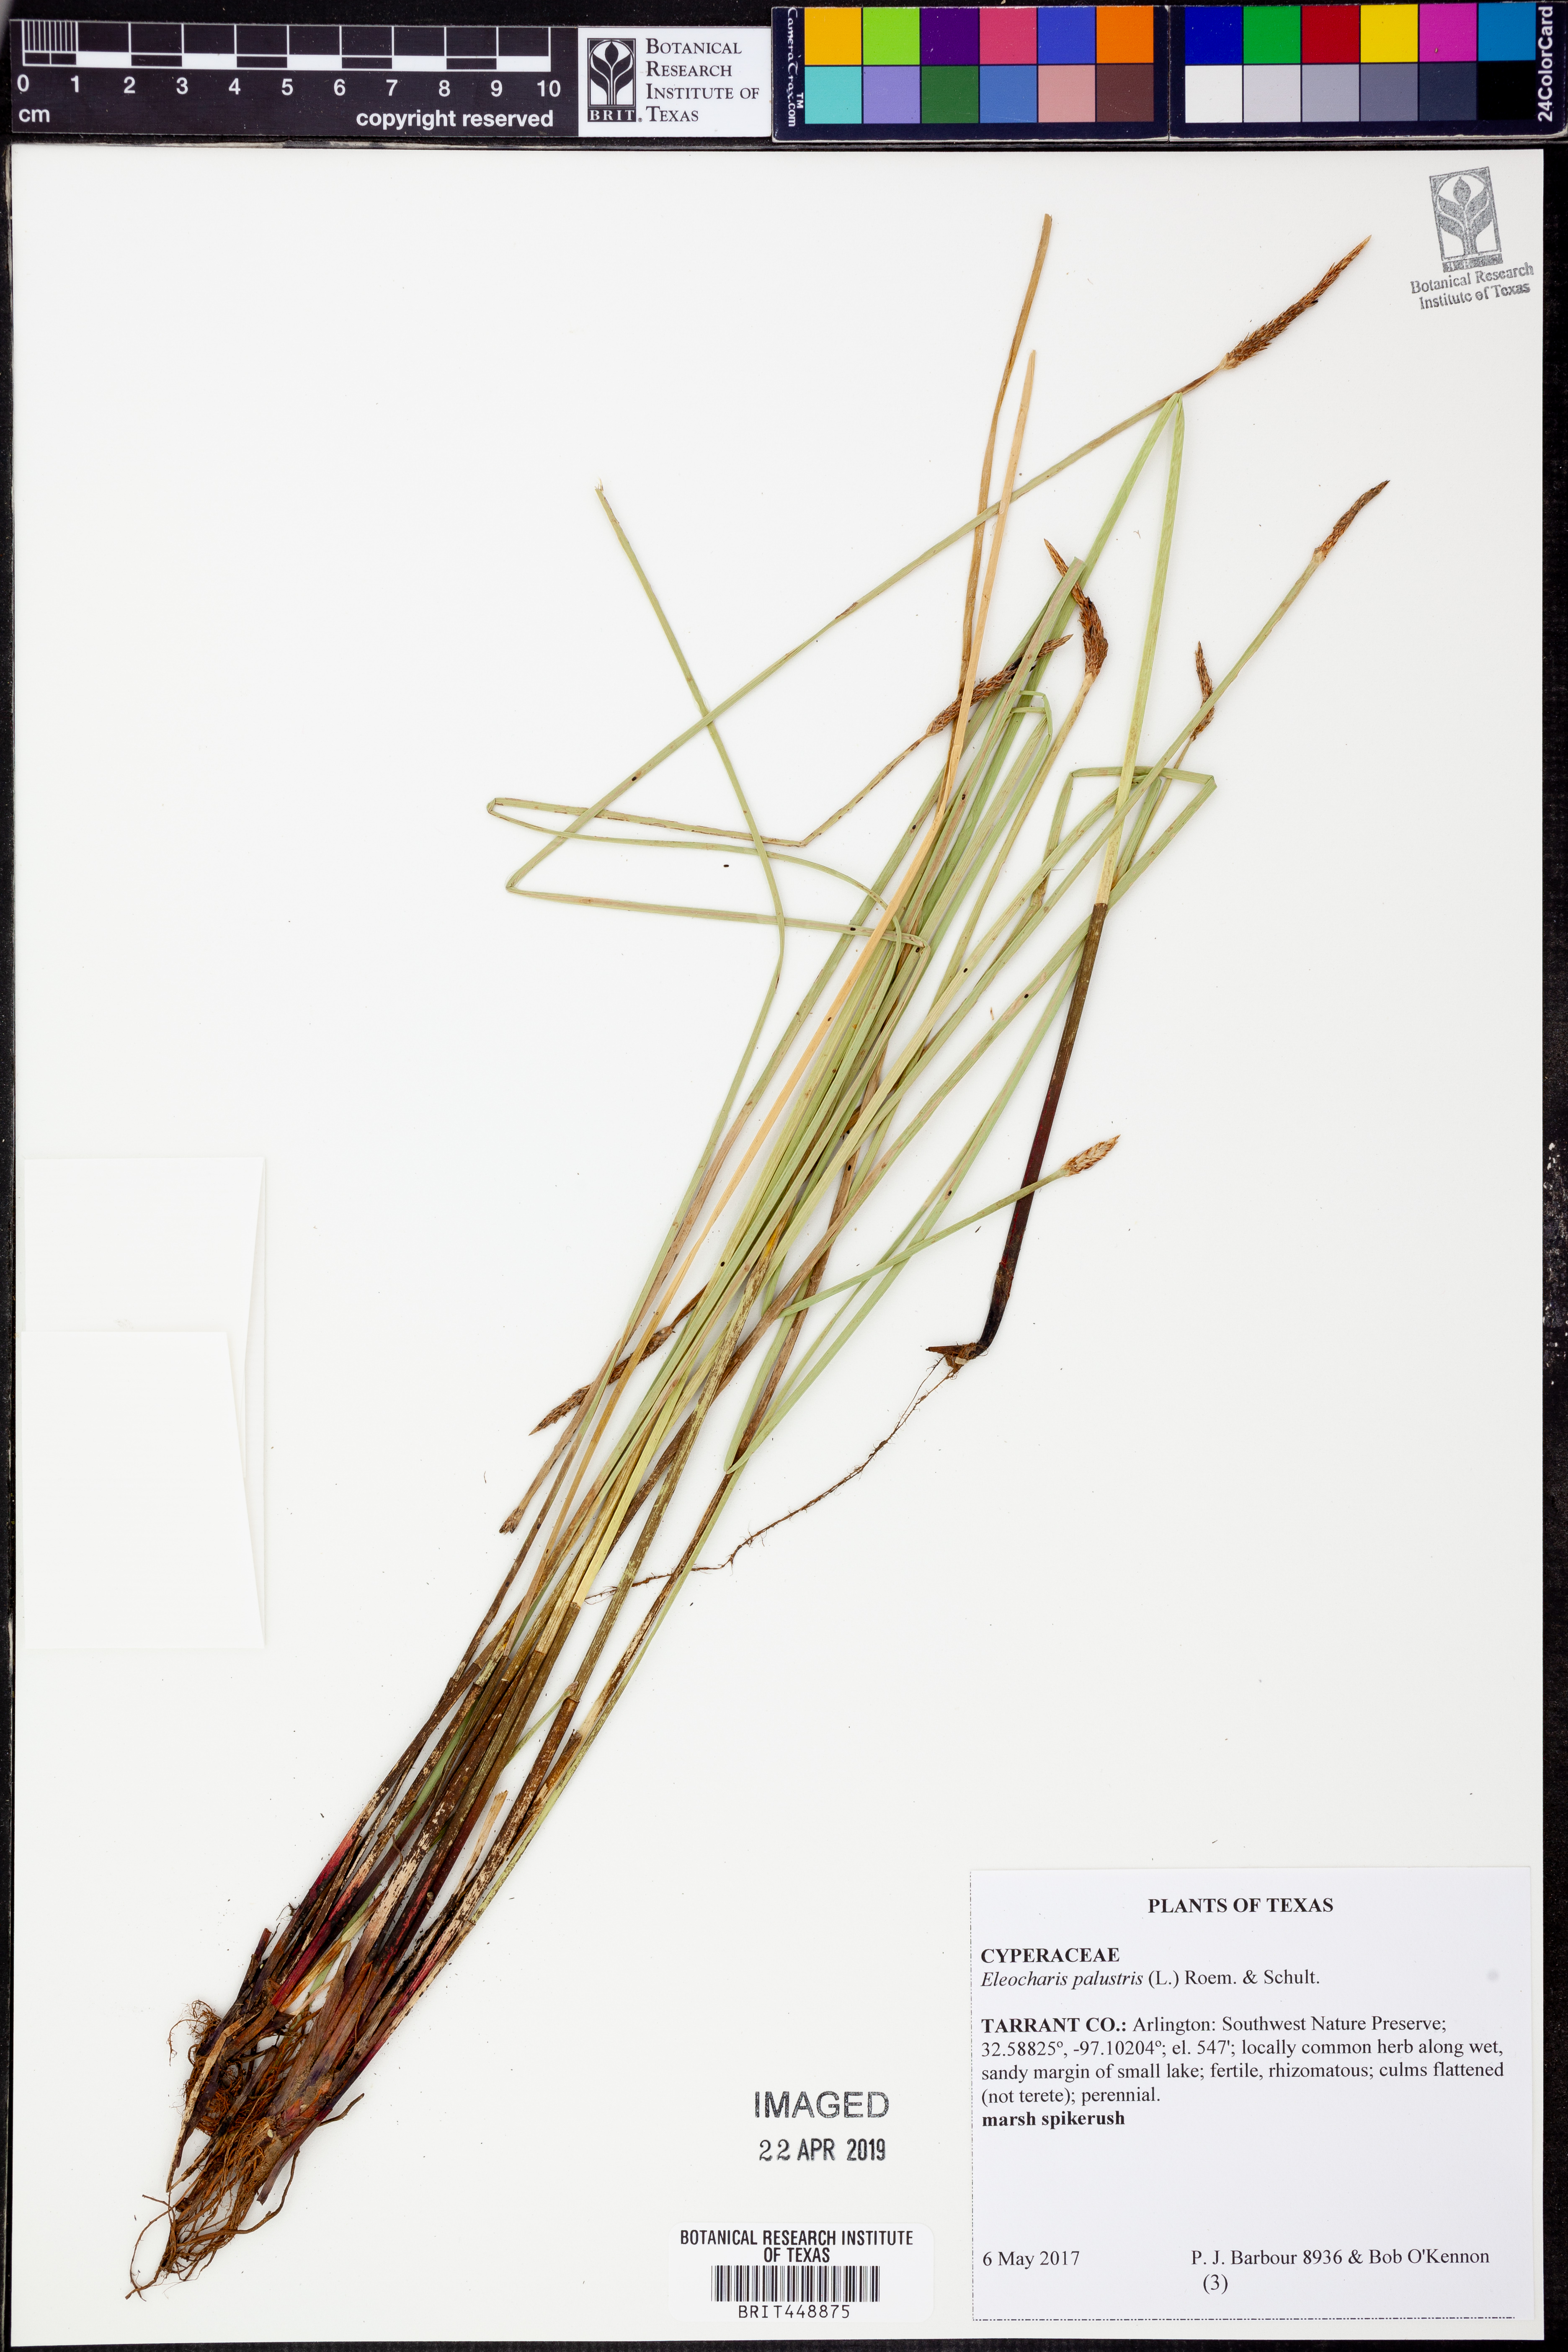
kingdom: Plantae
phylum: Tracheophyta
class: Liliopsida
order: Poales
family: Cyperaceae
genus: Eleocharis
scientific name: Eleocharis palustris
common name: Common spike-rush
